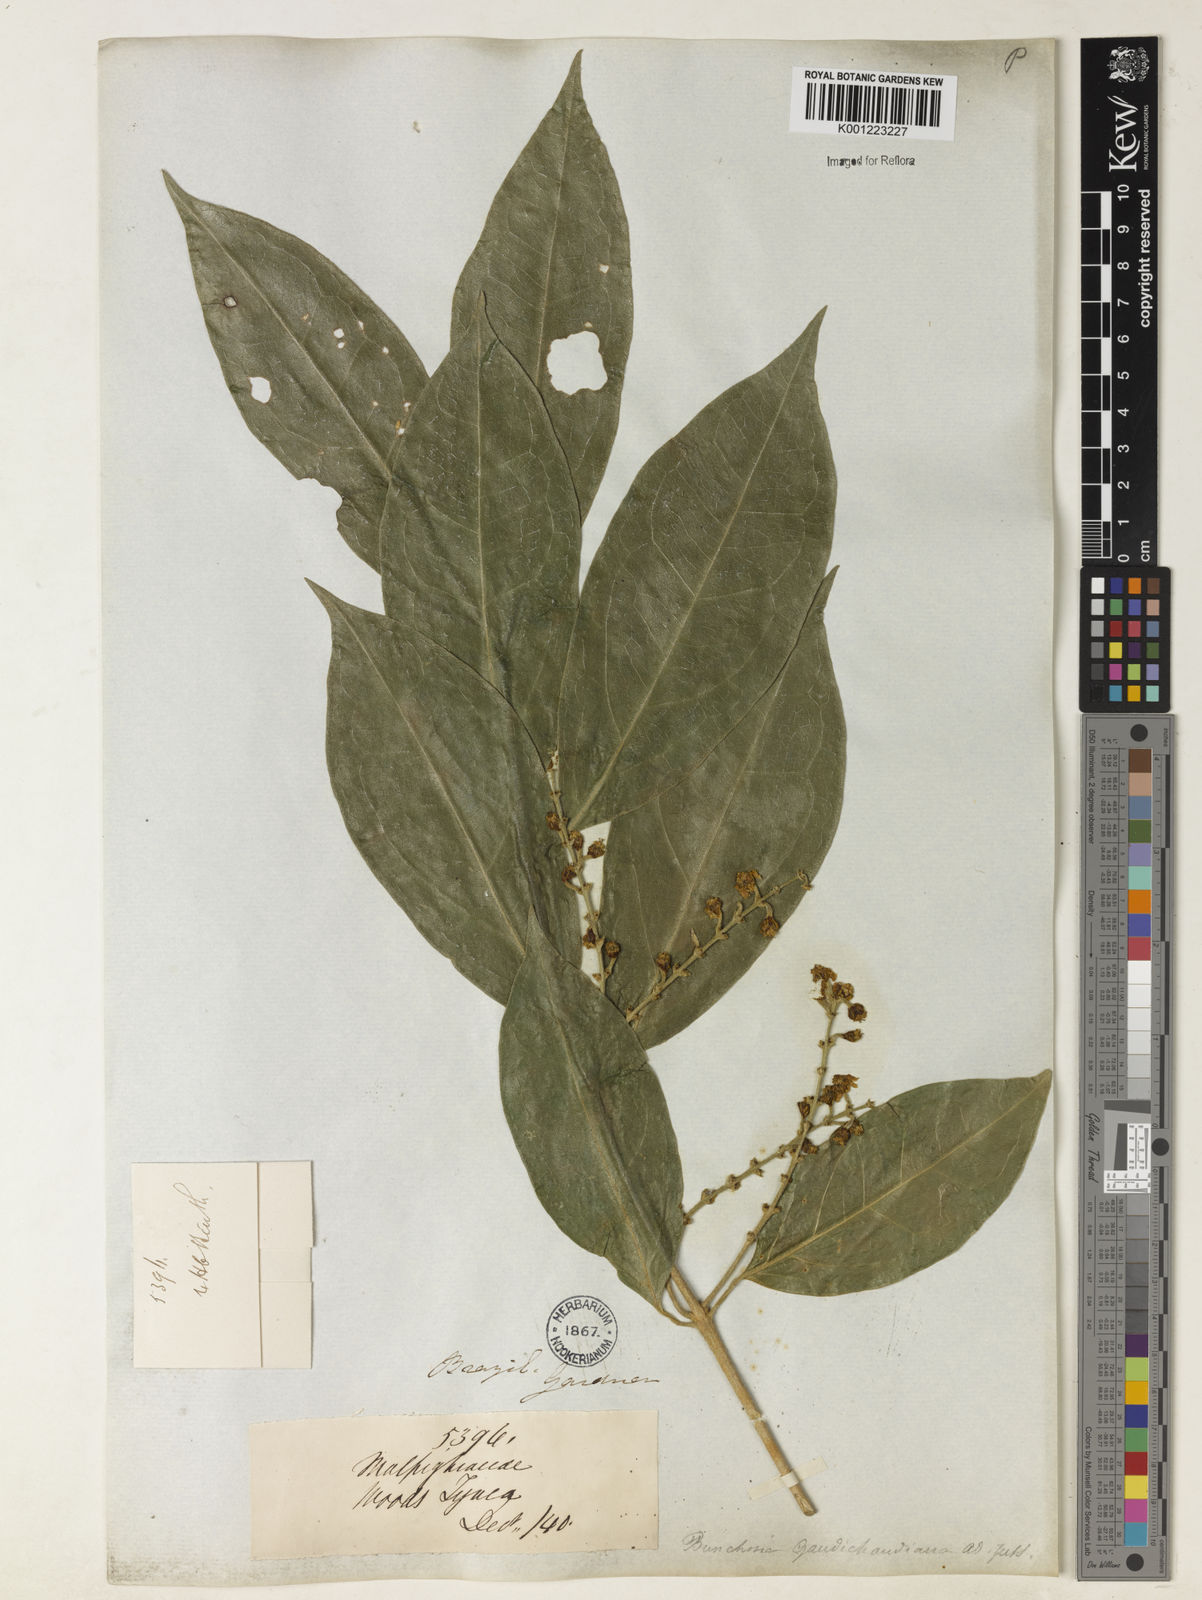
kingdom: Plantae
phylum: Tracheophyta
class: Magnoliopsida
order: Malpighiales
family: Malpighiaceae
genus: Bunchosia
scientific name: Bunchosia fluminensis
